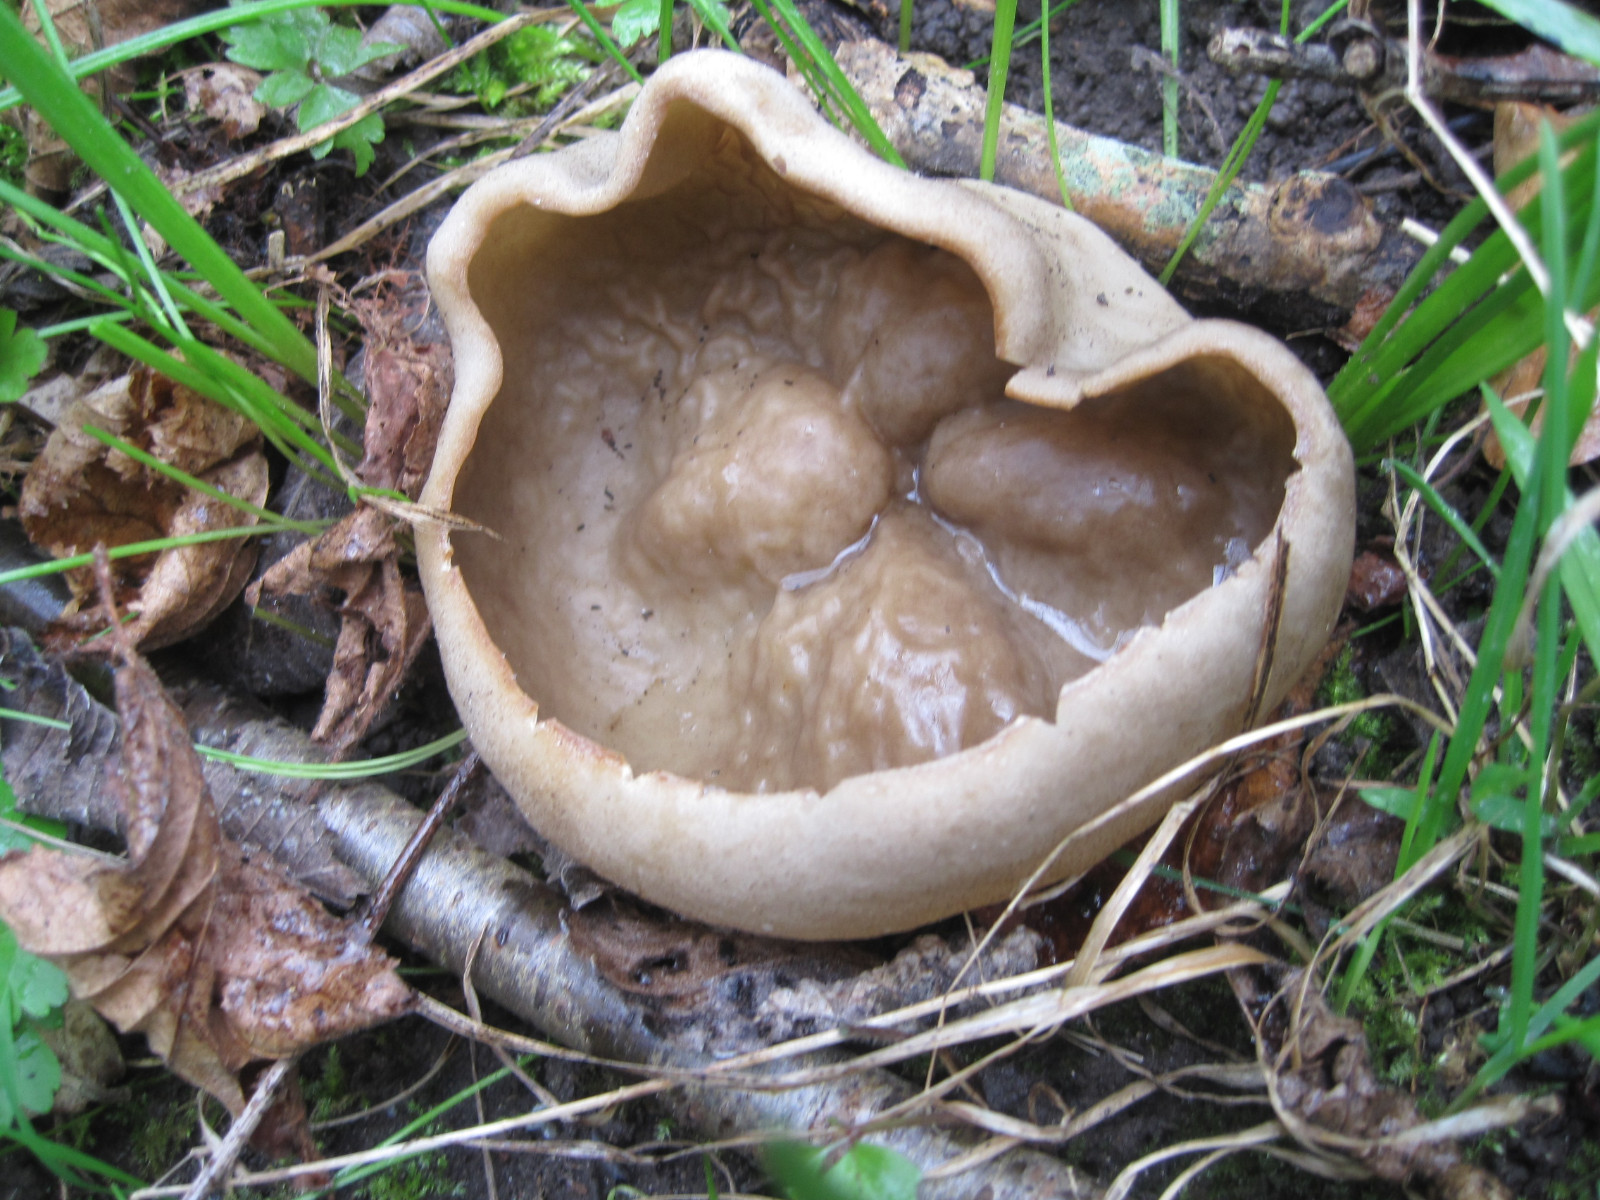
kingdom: Fungi
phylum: Ascomycota
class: Pezizomycetes
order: Pezizales
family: Morchellaceae
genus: Disciotis
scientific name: Disciotis venosa
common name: klor-bægermorkel
